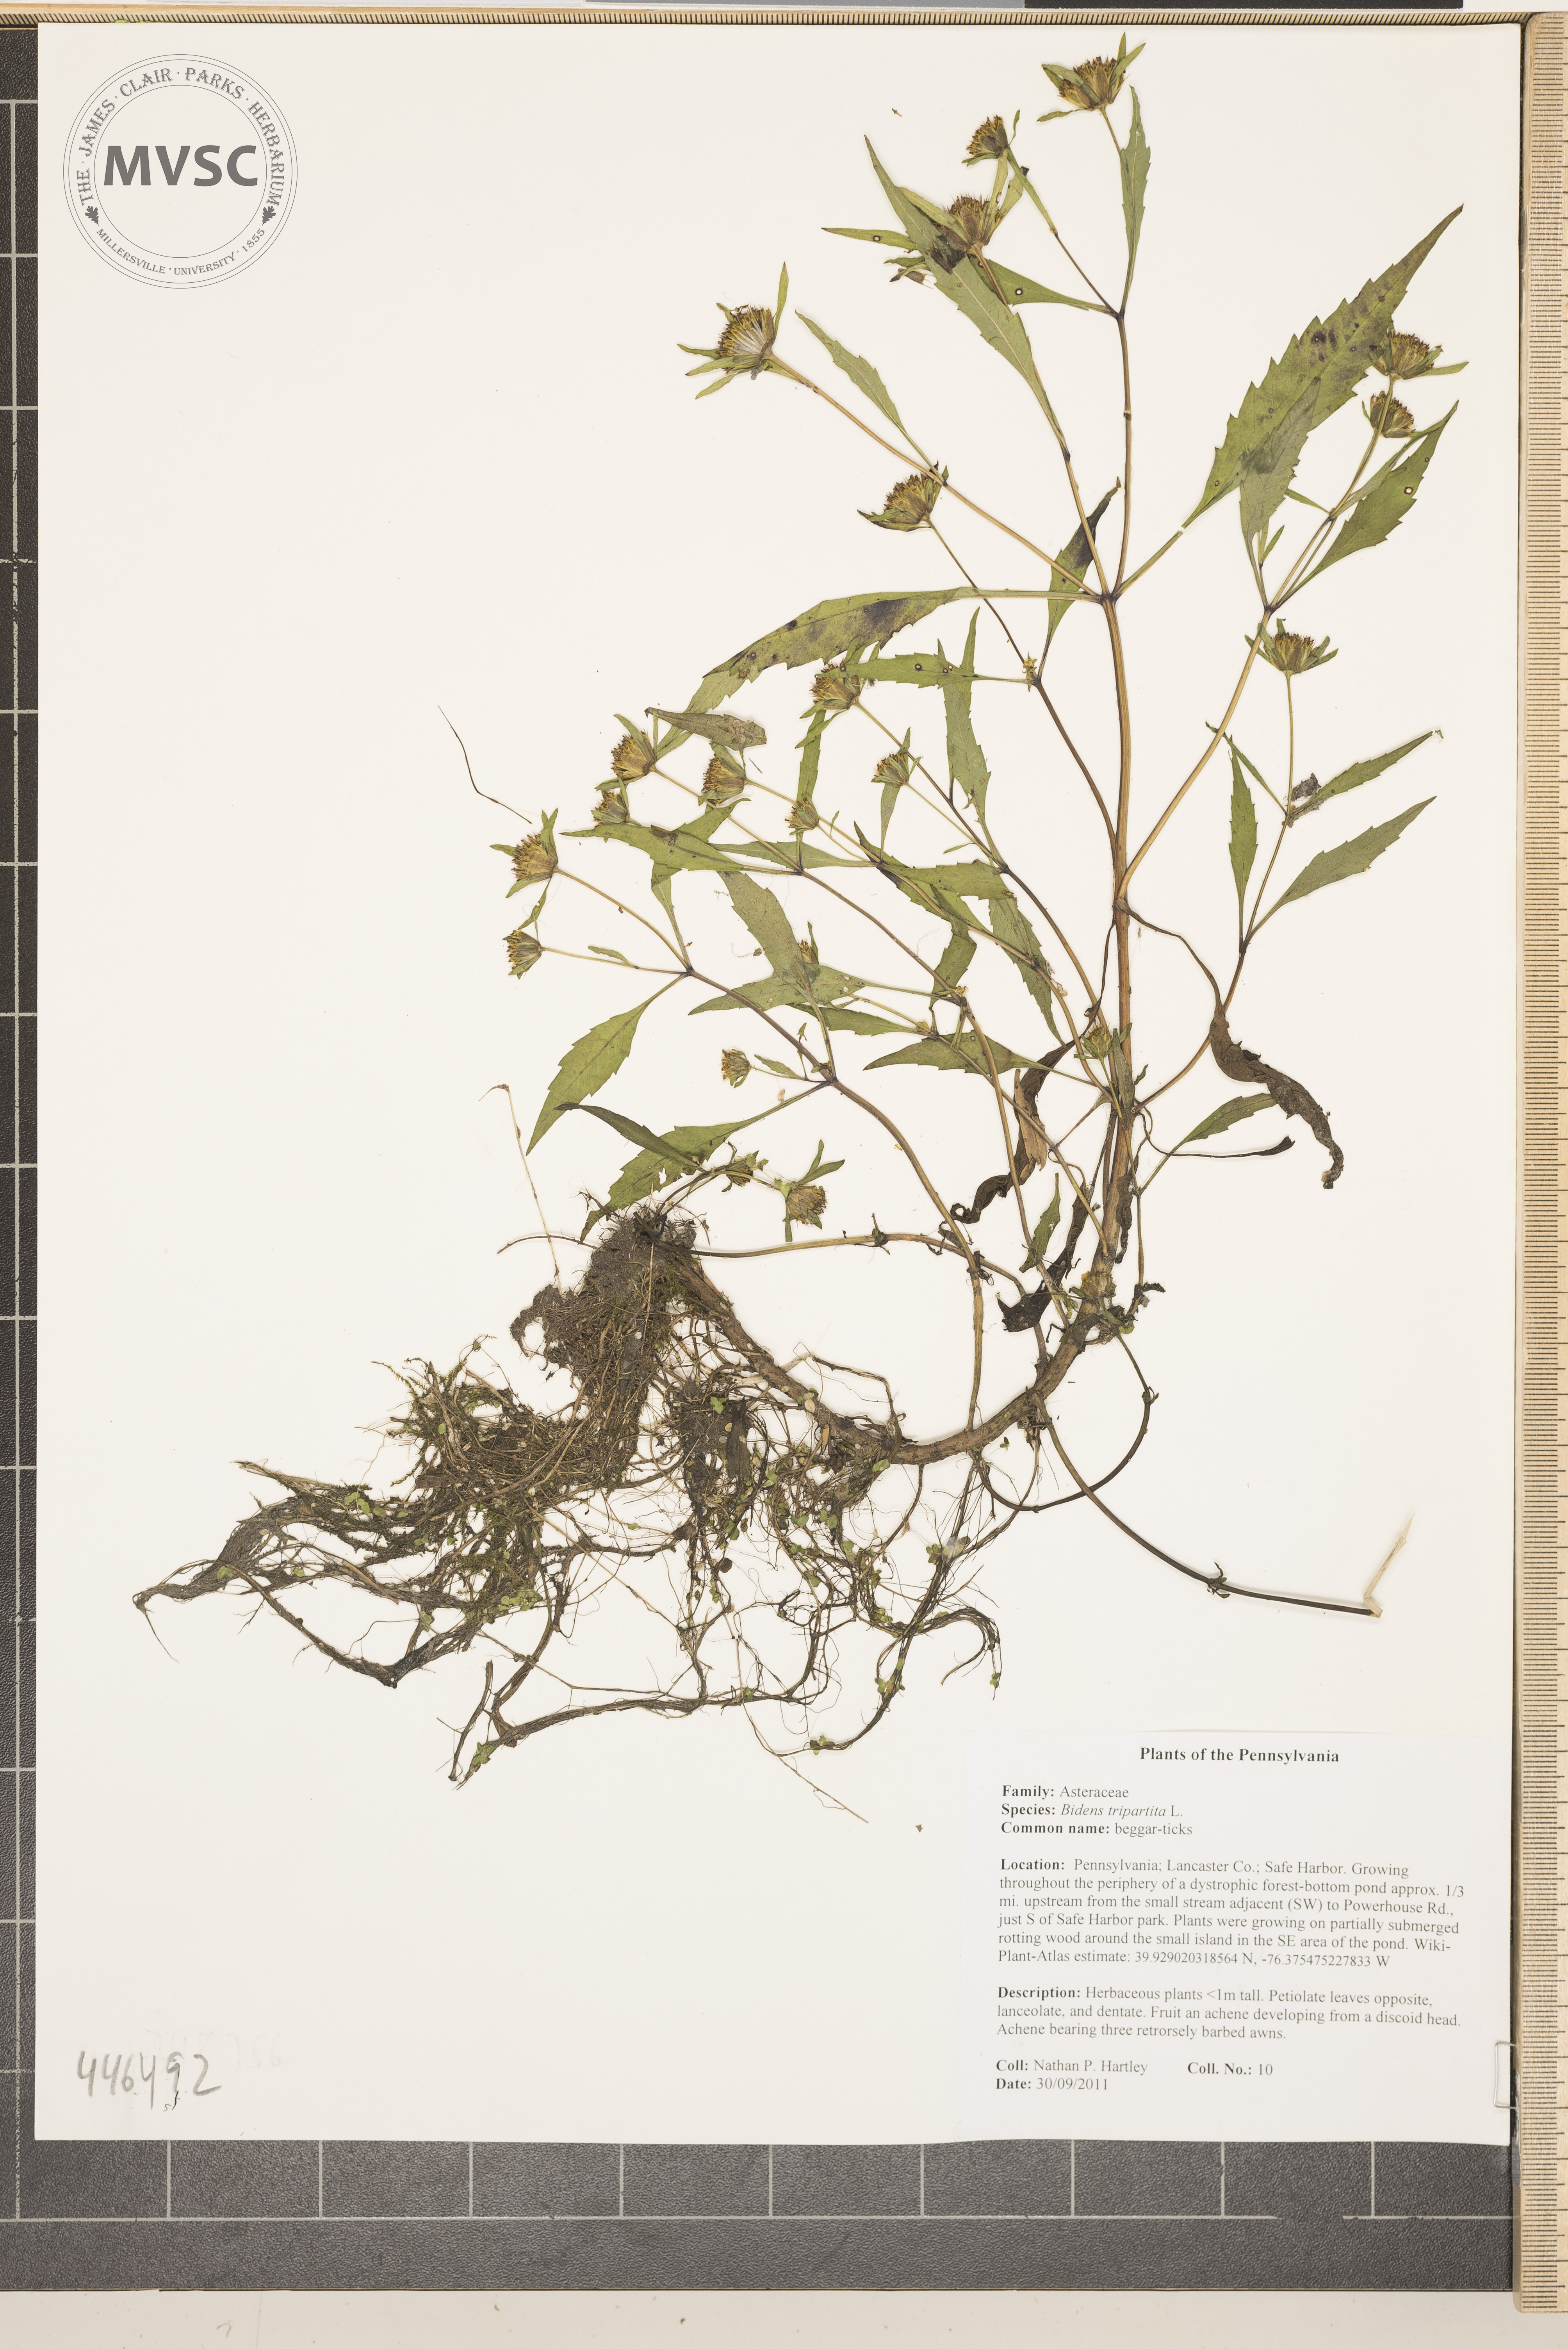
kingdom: Plantae
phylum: Tracheophyta
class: Magnoliopsida
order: Asterales
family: Asteraceae
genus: Bidens
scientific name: Bidens tripartita
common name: Beggar-ticks
